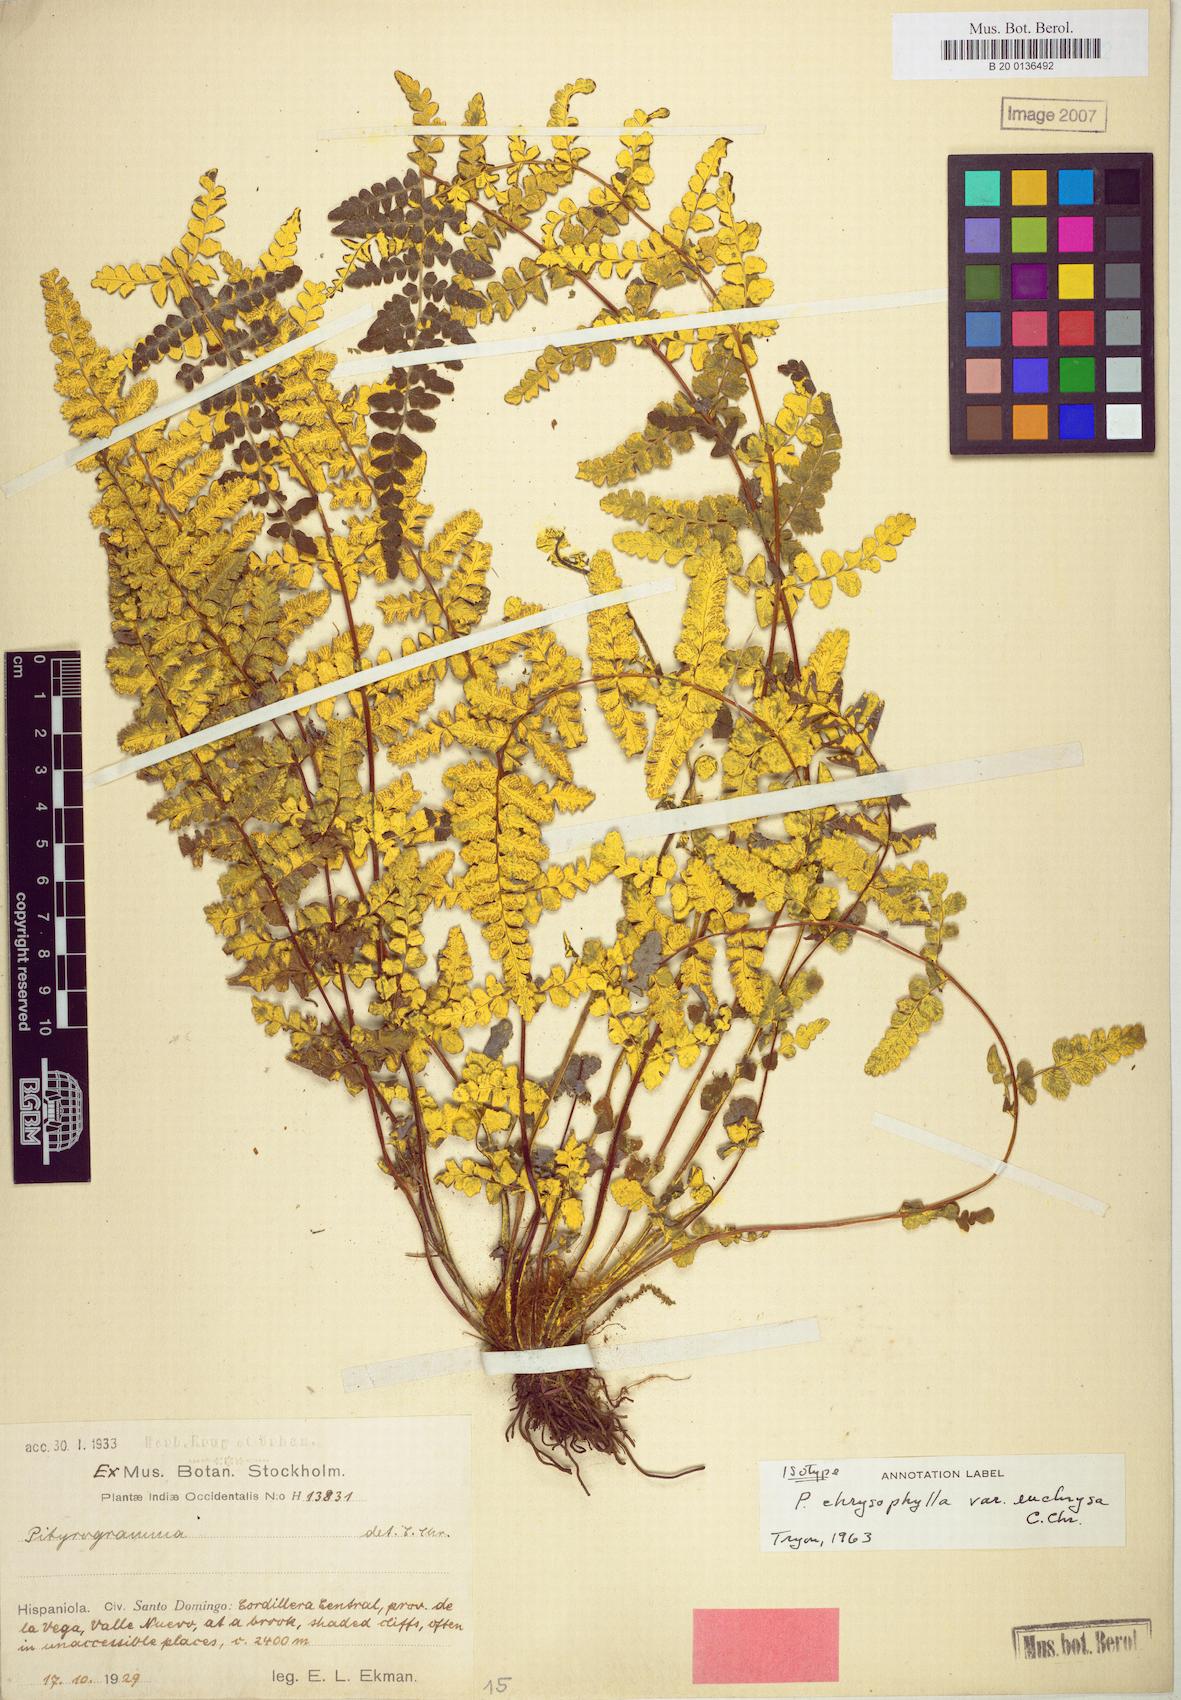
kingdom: Plantae
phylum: Tracheophyta
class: Polypodiopsida
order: Polypodiales
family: Pteridaceae
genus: Pityrogramma
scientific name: Pityrogramma euchrysa
